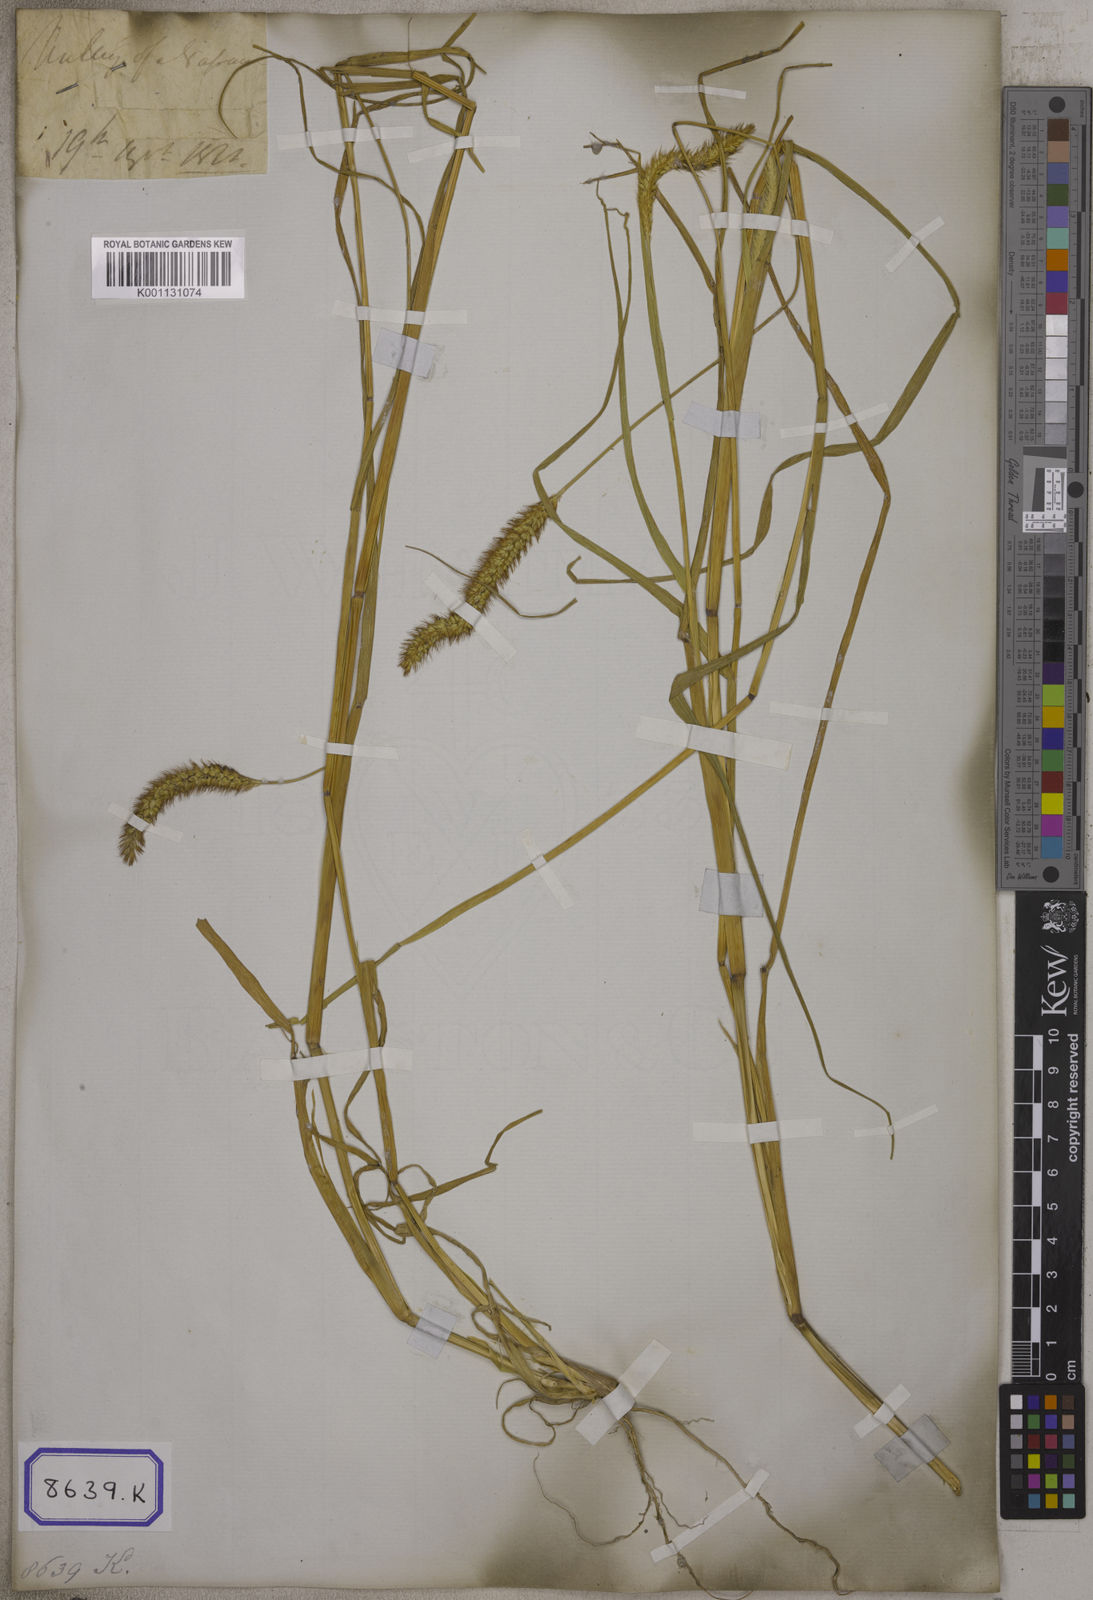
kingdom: Plantae
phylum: Tracheophyta
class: Liliopsida
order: Poales
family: Poaceae
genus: Cenchrus
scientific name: Cenchrus americanus
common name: Pearl millet
